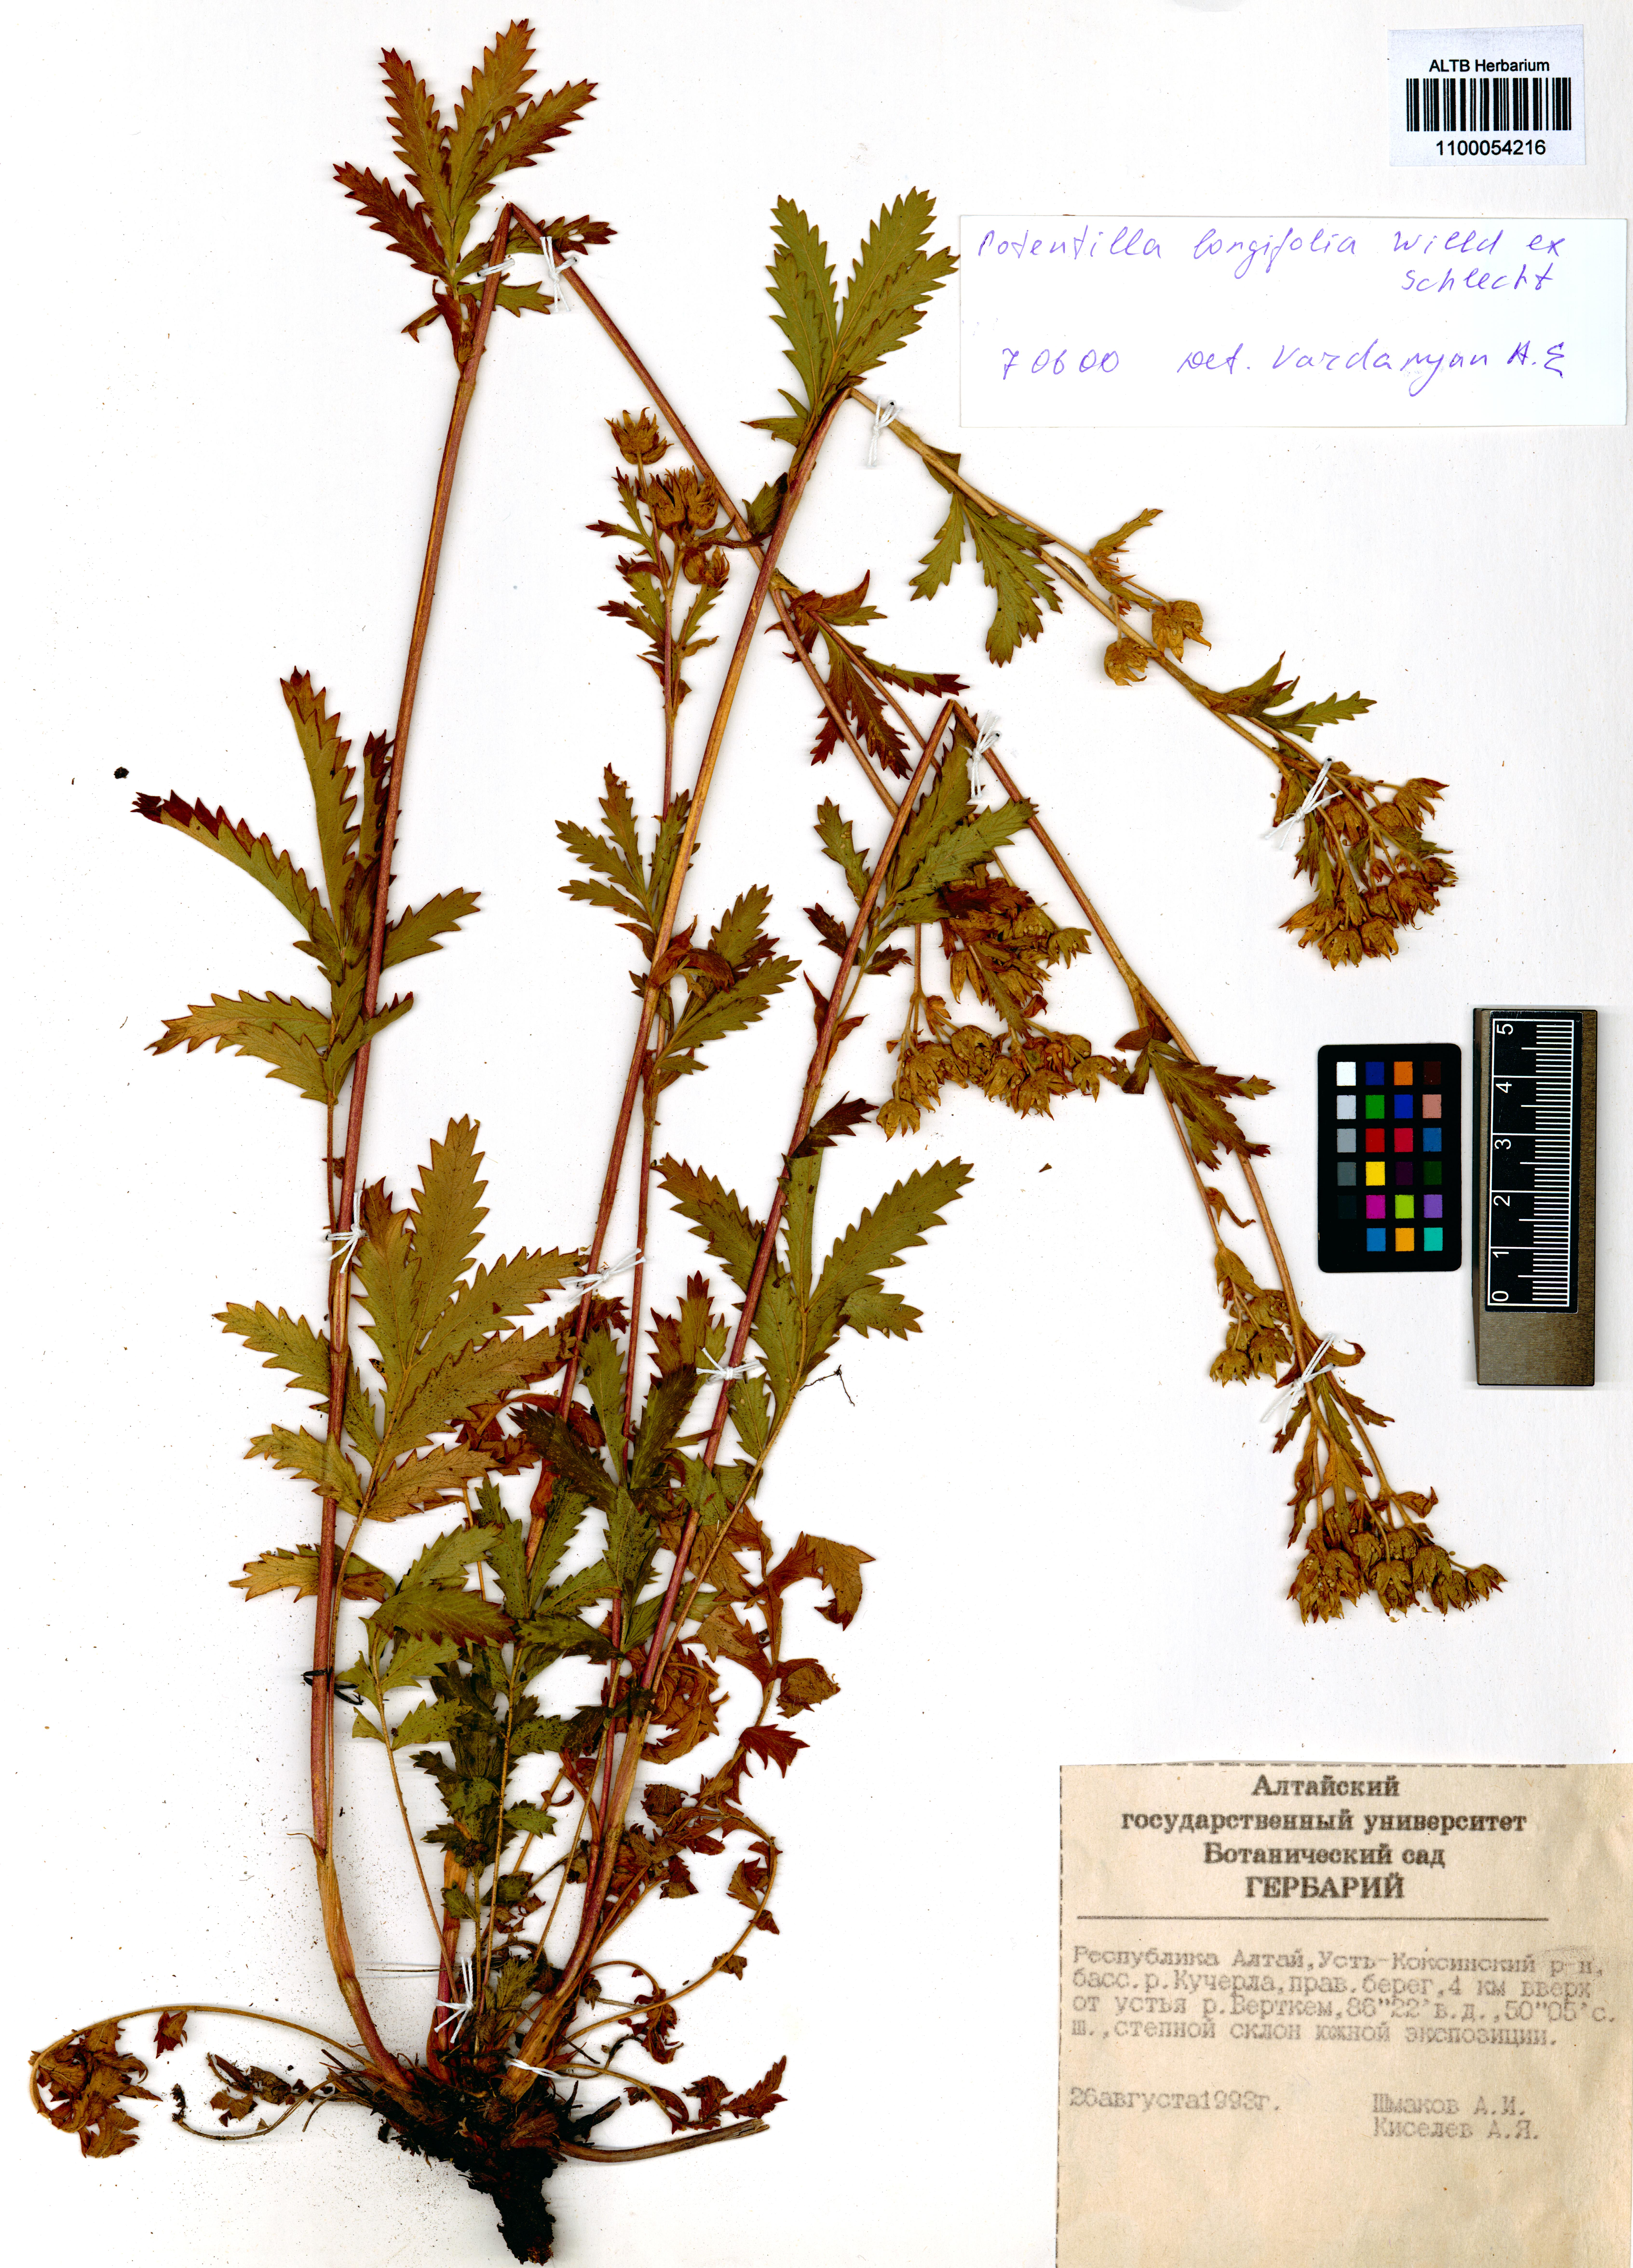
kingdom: Plantae
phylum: Tracheophyta
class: Magnoliopsida
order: Rosales
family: Rosaceae
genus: Potentilla
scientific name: Potentilla longifolia
